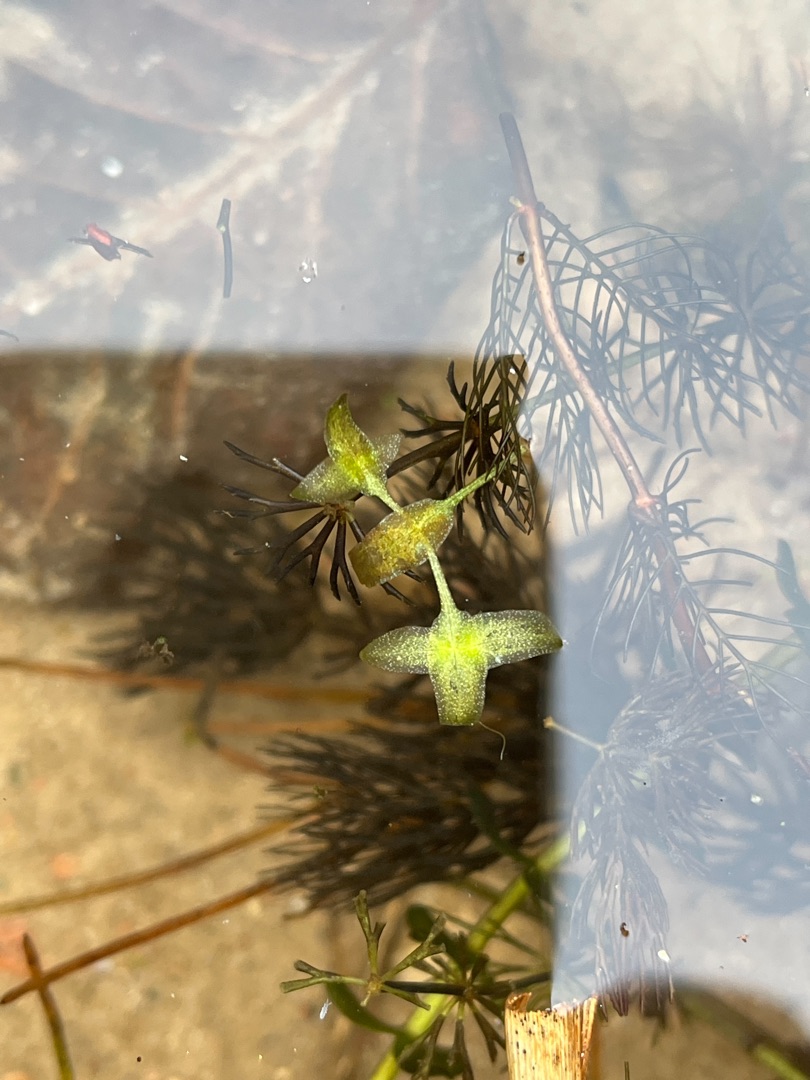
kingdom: Plantae
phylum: Tracheophyta
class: Liliopsida
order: Alismatales
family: Araceae
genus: Lemna
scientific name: Lemna trisulca
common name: Kors-andemad
